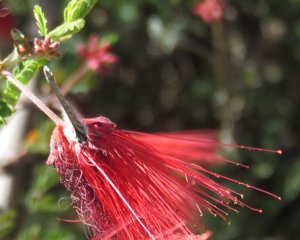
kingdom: Animalia
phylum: Arthropoda
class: Insecta
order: Lepidoptera
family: Lycaenidae
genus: Leptotes
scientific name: Leptotes marina
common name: Marine Blue
